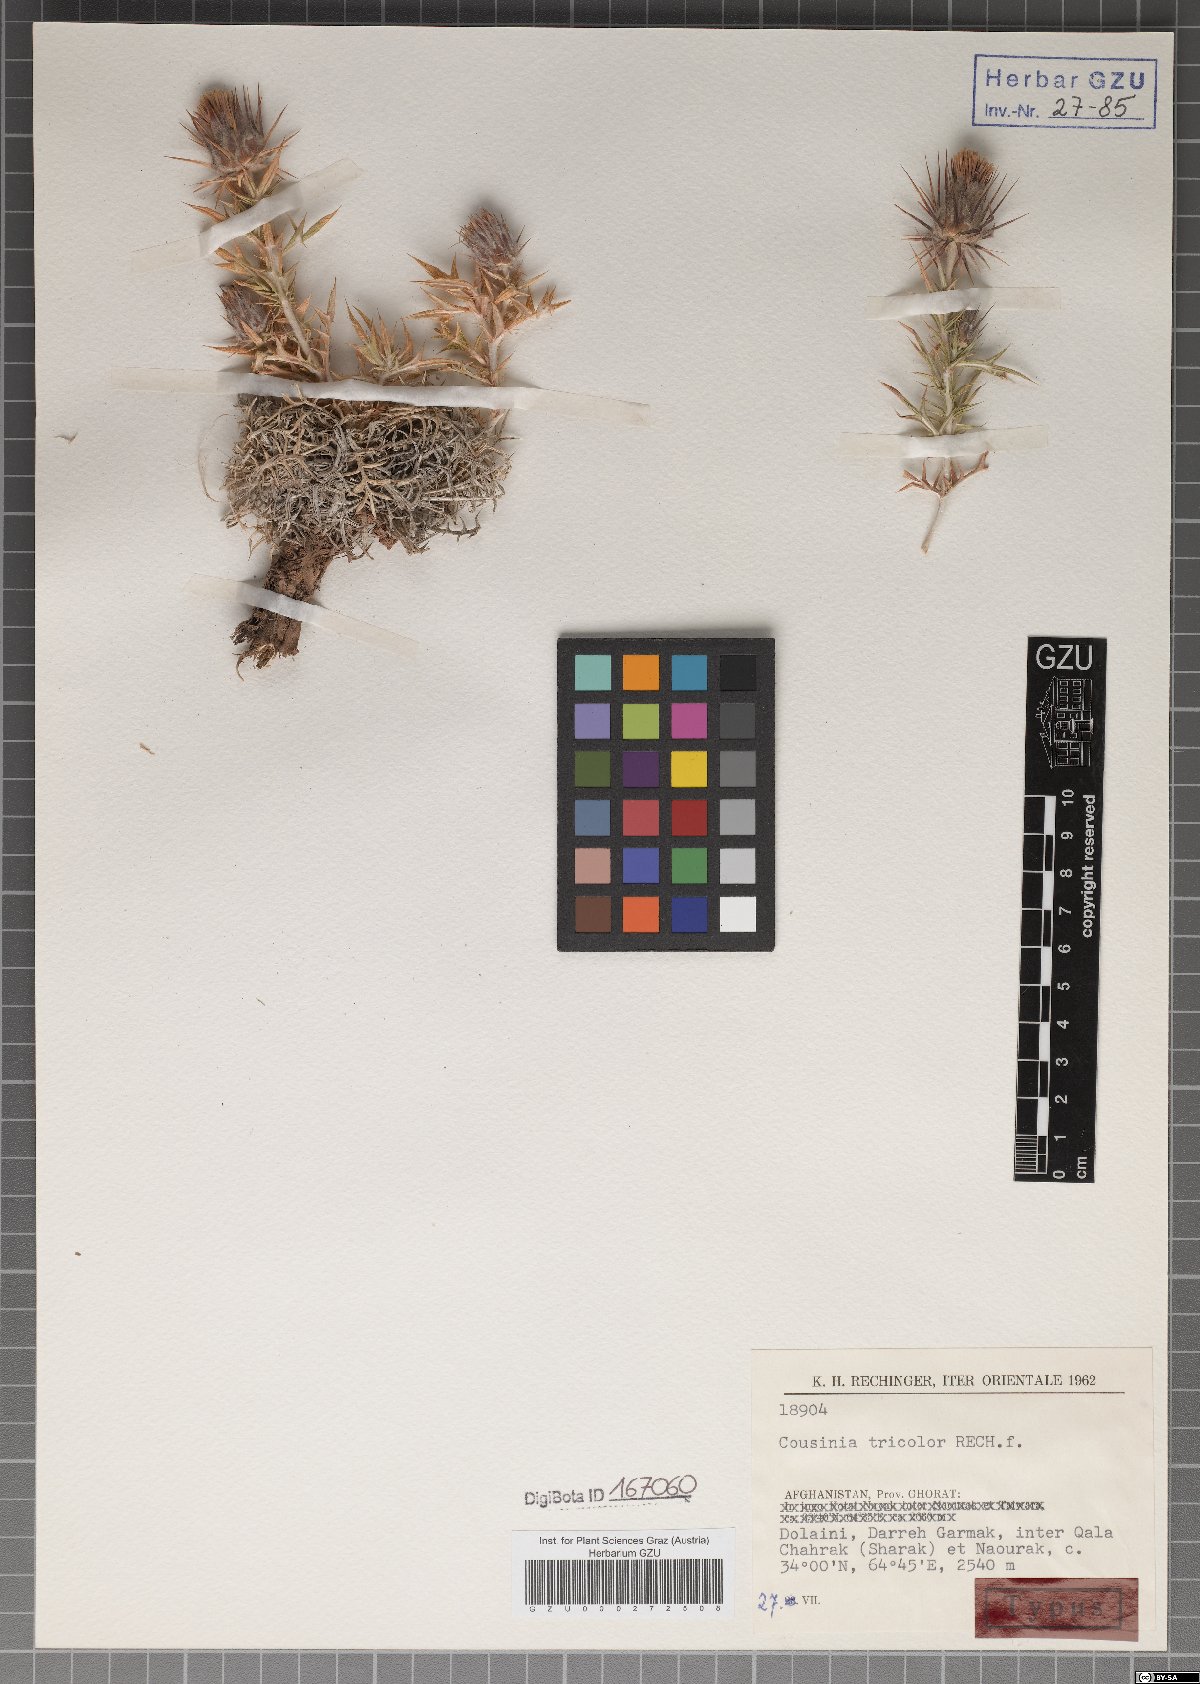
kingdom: Plantae
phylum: Tracheophyta
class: Magnoliopsida
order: Asterales
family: Asteraceae
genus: Cousinia
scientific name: Cousinia tricolor
